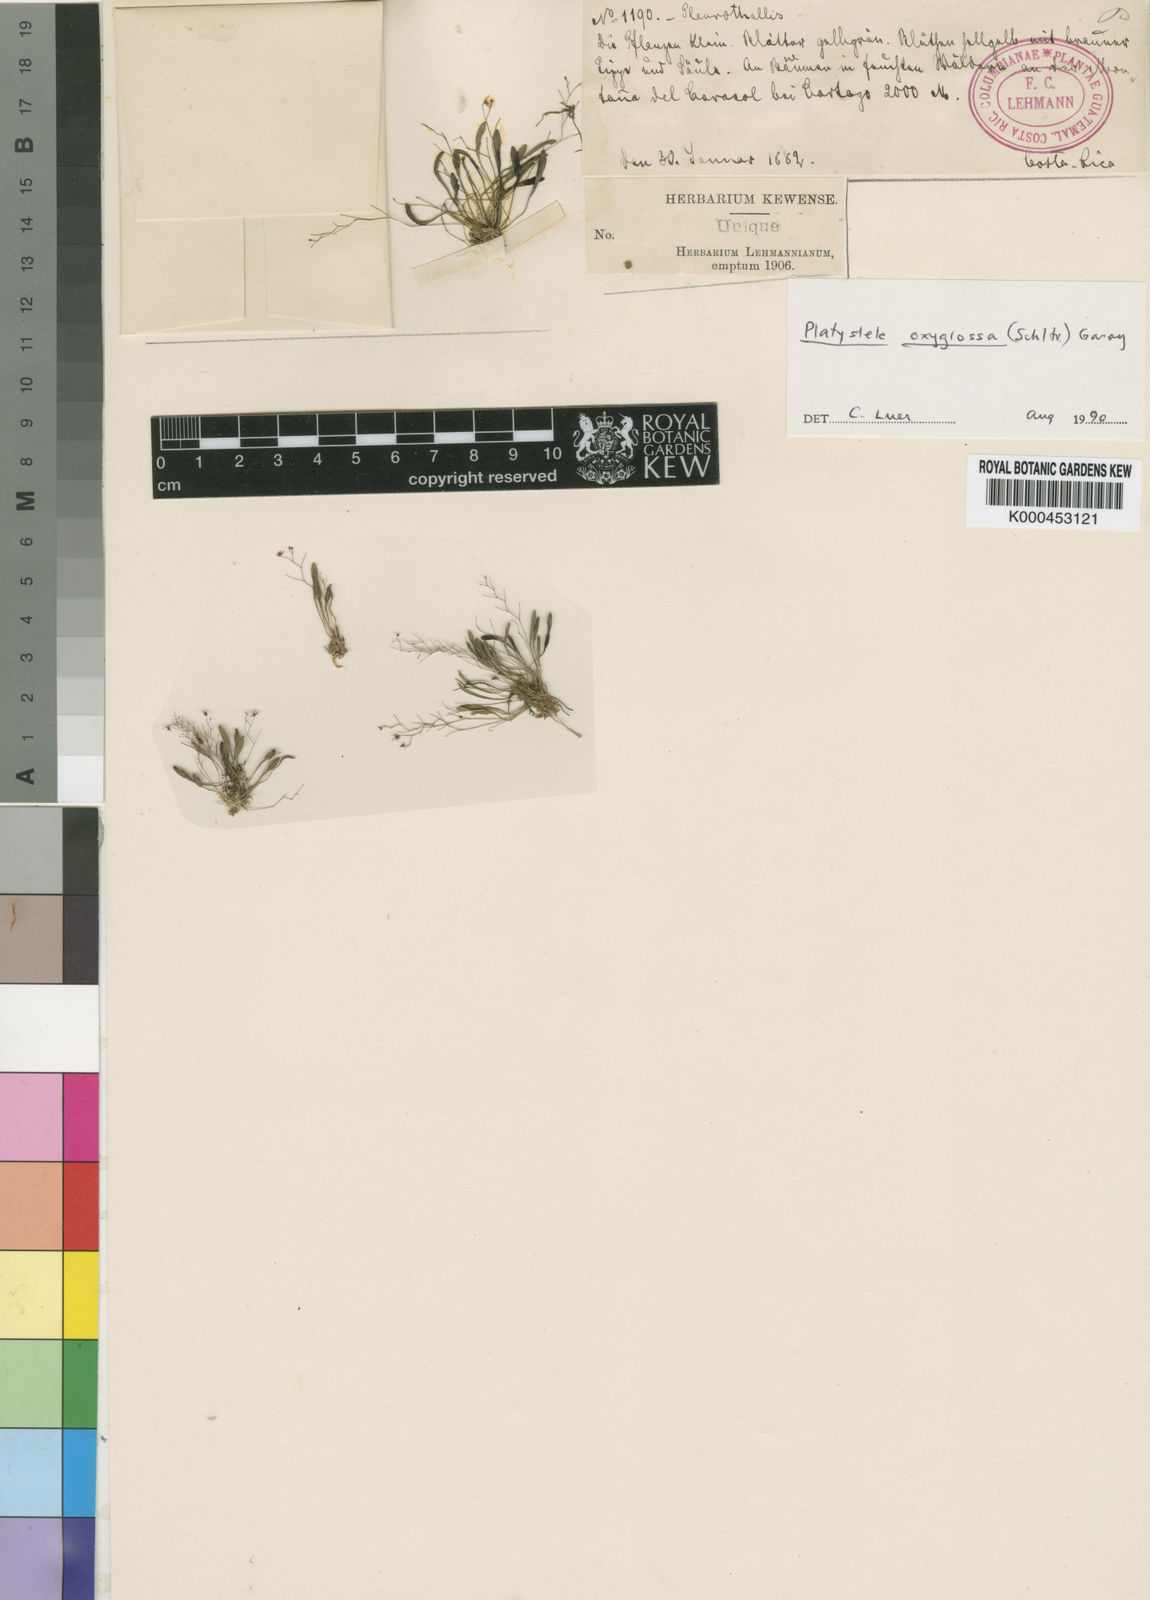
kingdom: Plantae
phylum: Tracheophyta
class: Liliopsida
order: Asparagales
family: Orchidaceae
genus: Platystele
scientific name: Platystele oxyglossa
